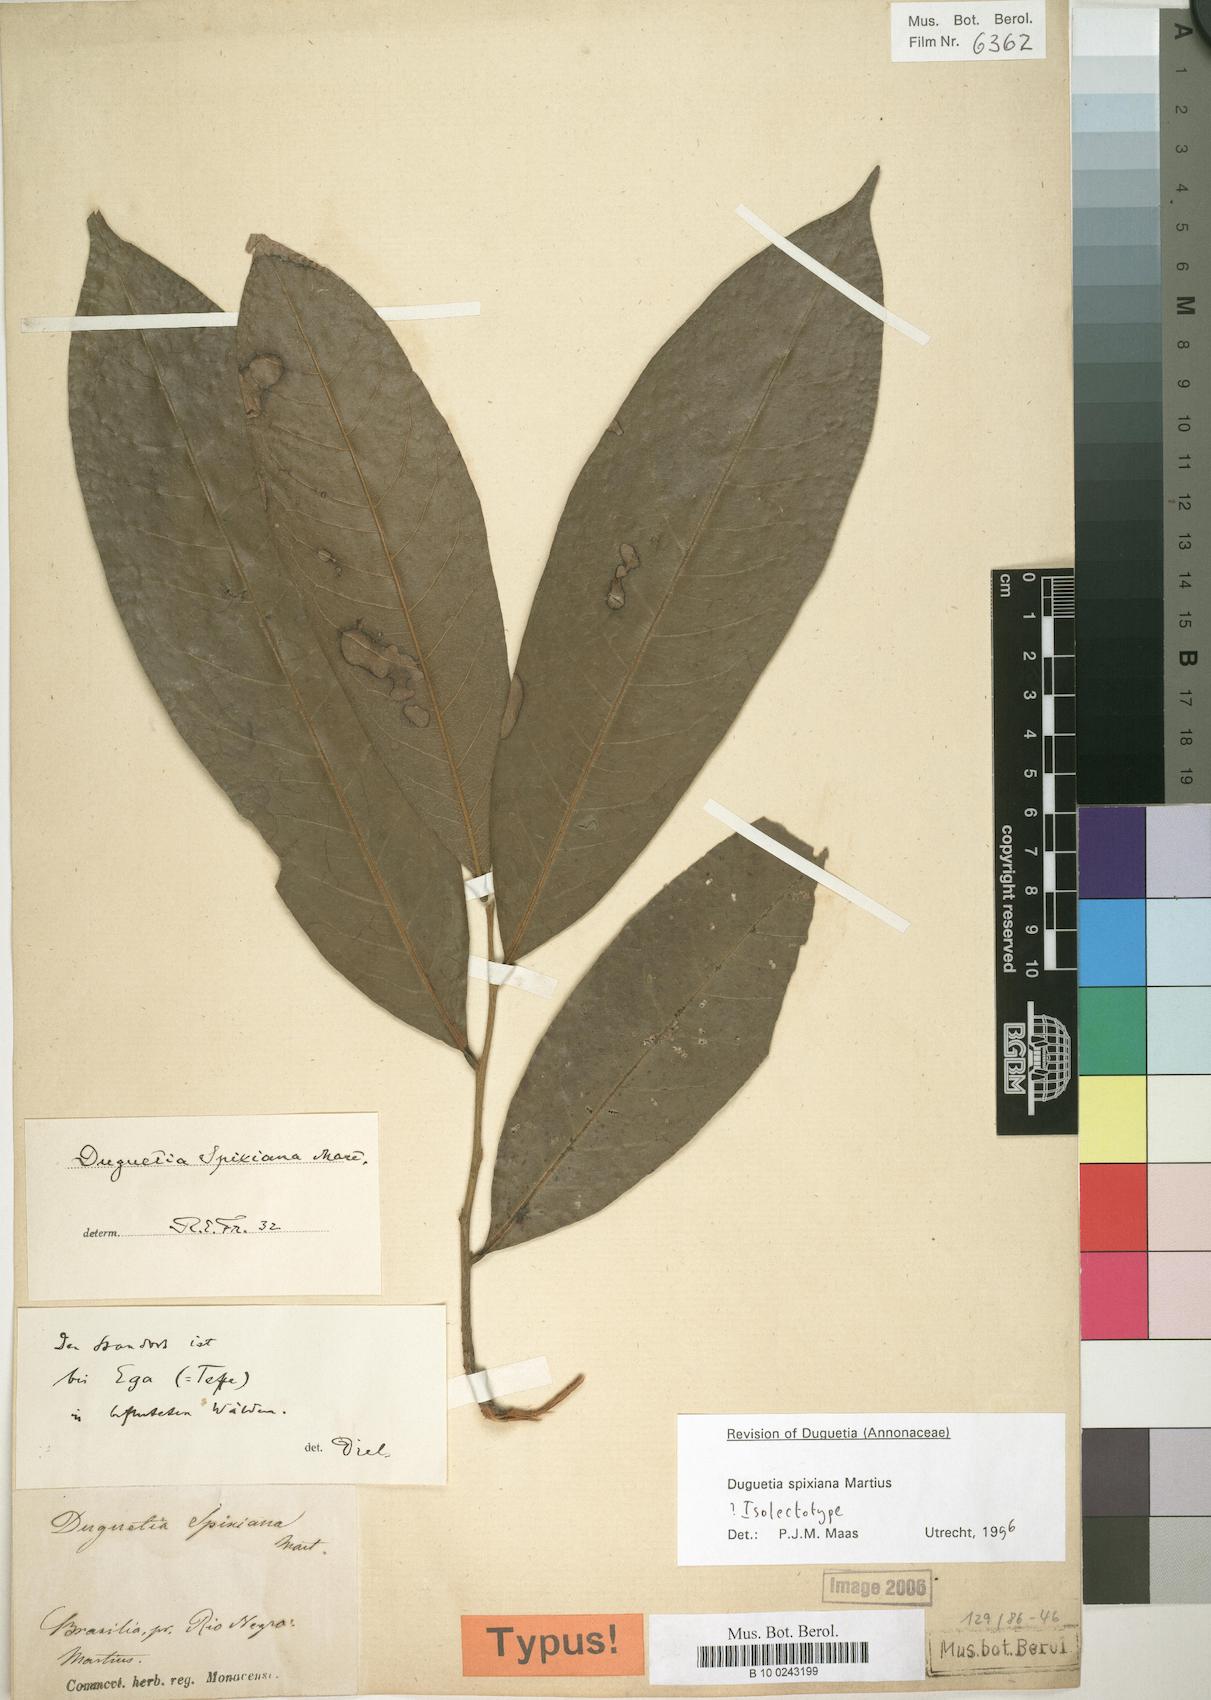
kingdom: Plantae
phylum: Tracheophyta
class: Magnoliopsida
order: Magnoliales
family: Annonaceae
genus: Duguetia
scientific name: Duguetia spixiana
